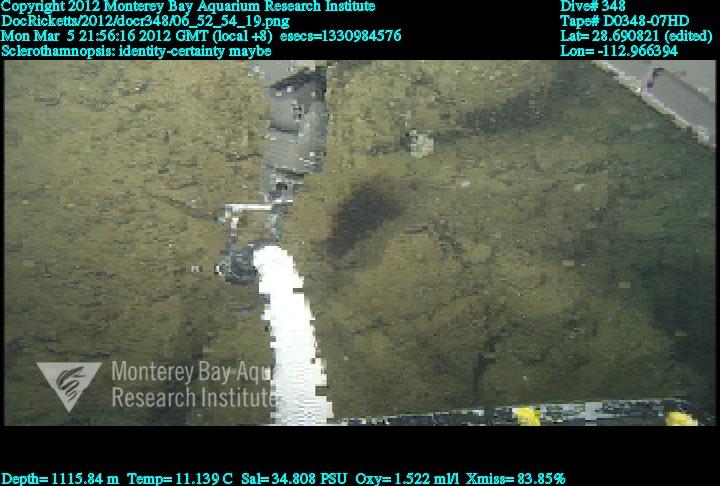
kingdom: Animalia
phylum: Porifera
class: Hexactinellida
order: Sceptrulophora
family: Tretodictyidae
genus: Sclerothamnopsis
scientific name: Sclerothamnopsis
